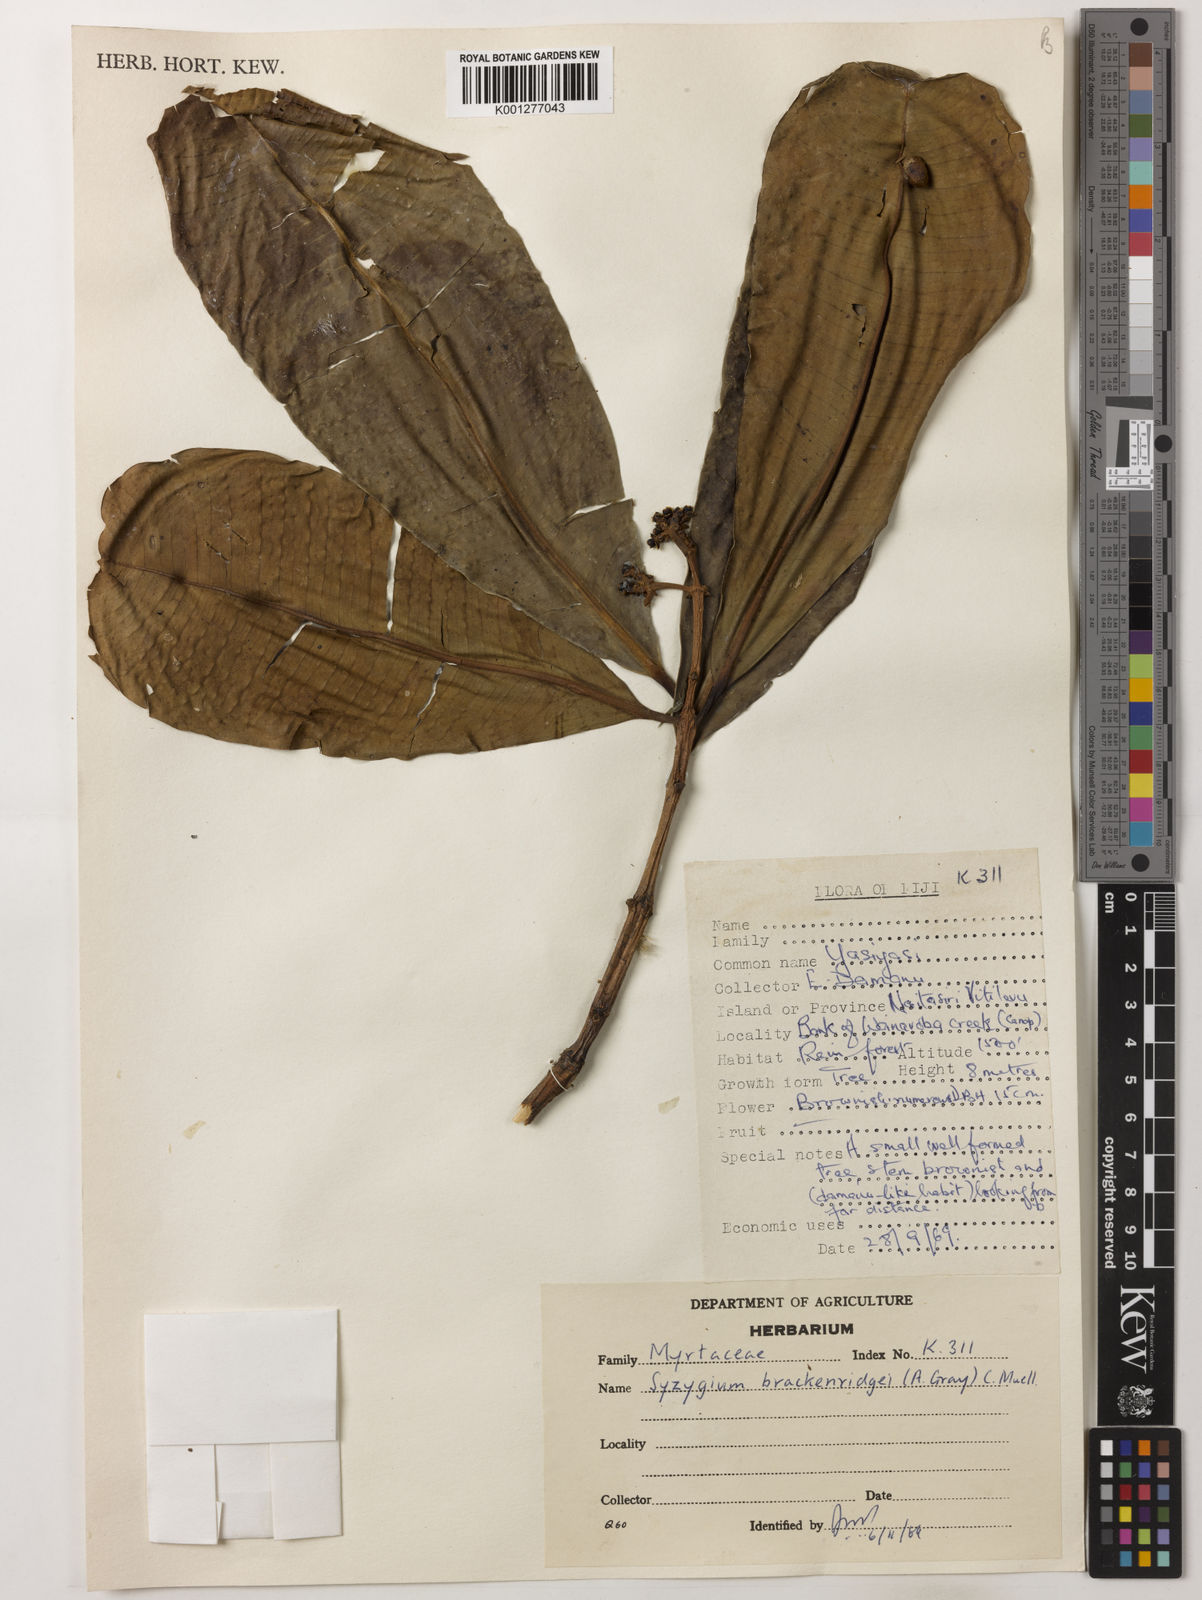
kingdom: Plantae
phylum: Tracheophyta
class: Magnoliopsida
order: Myrtales
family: Myrtaceae
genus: Syzygium
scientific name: Syzygium
